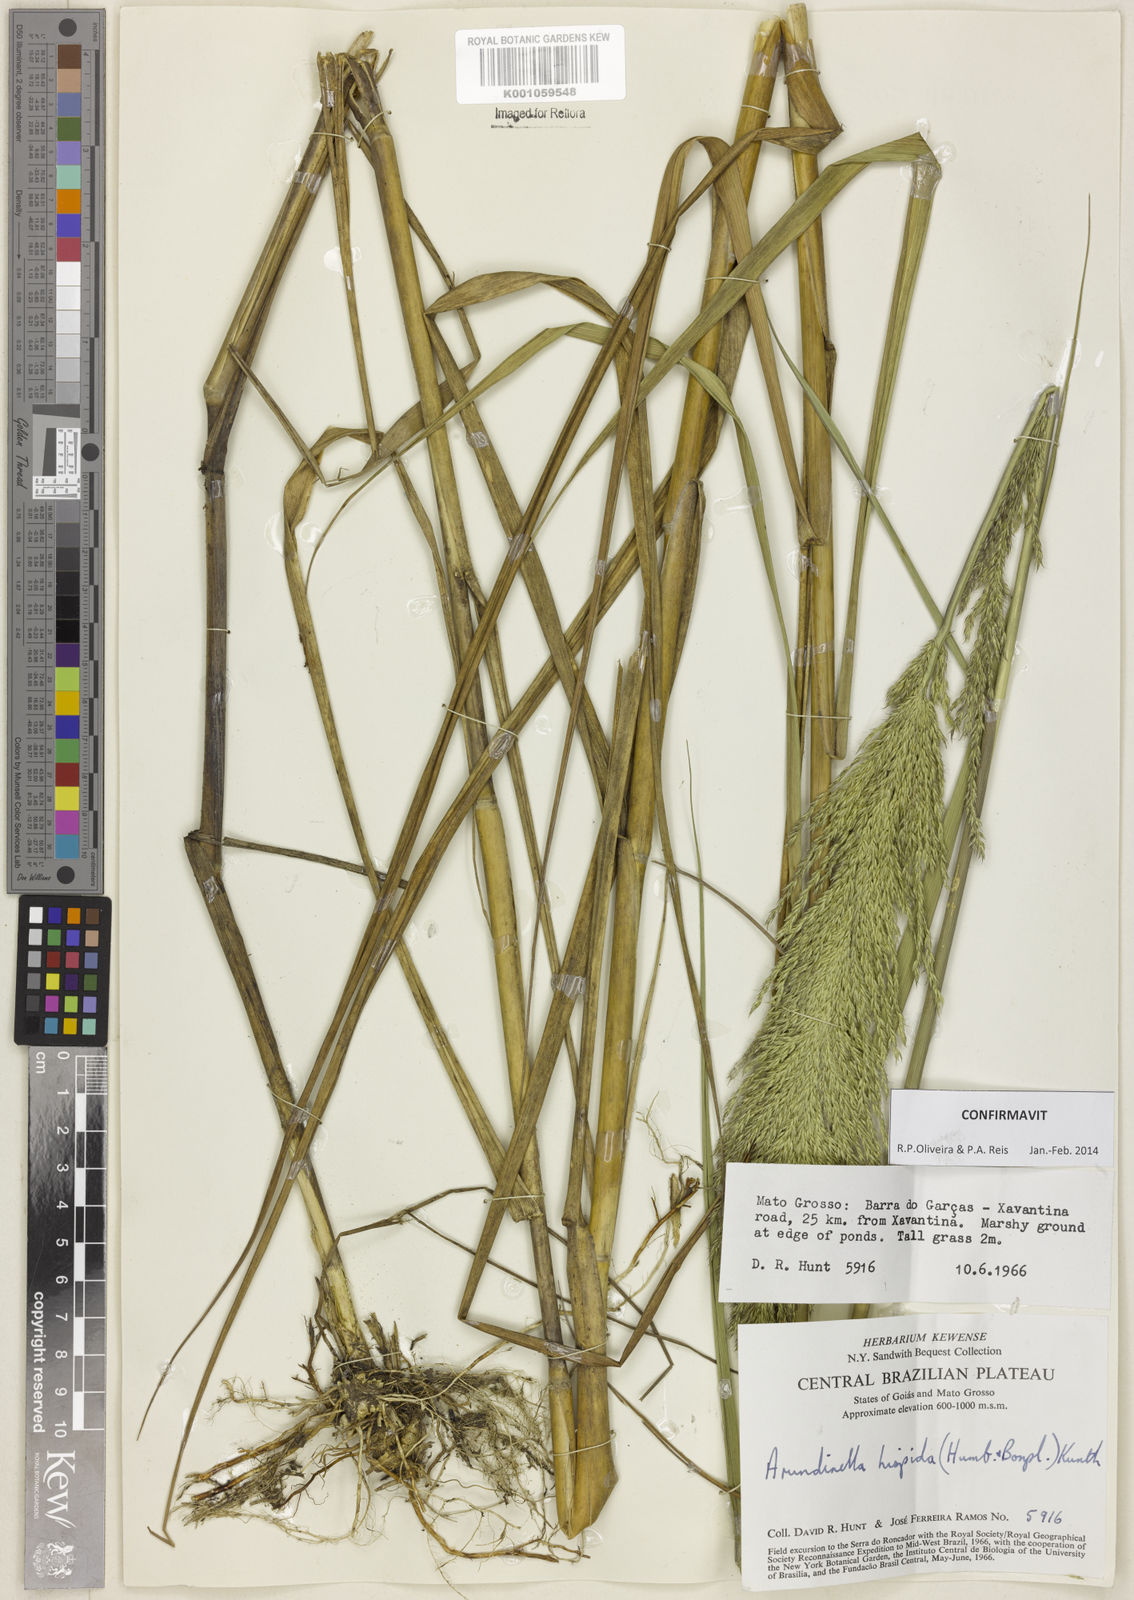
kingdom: Plantae
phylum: Tracheophyta
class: Liliopsida
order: Poales
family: Poaceae
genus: Arundinella
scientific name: Arundinella hispida
